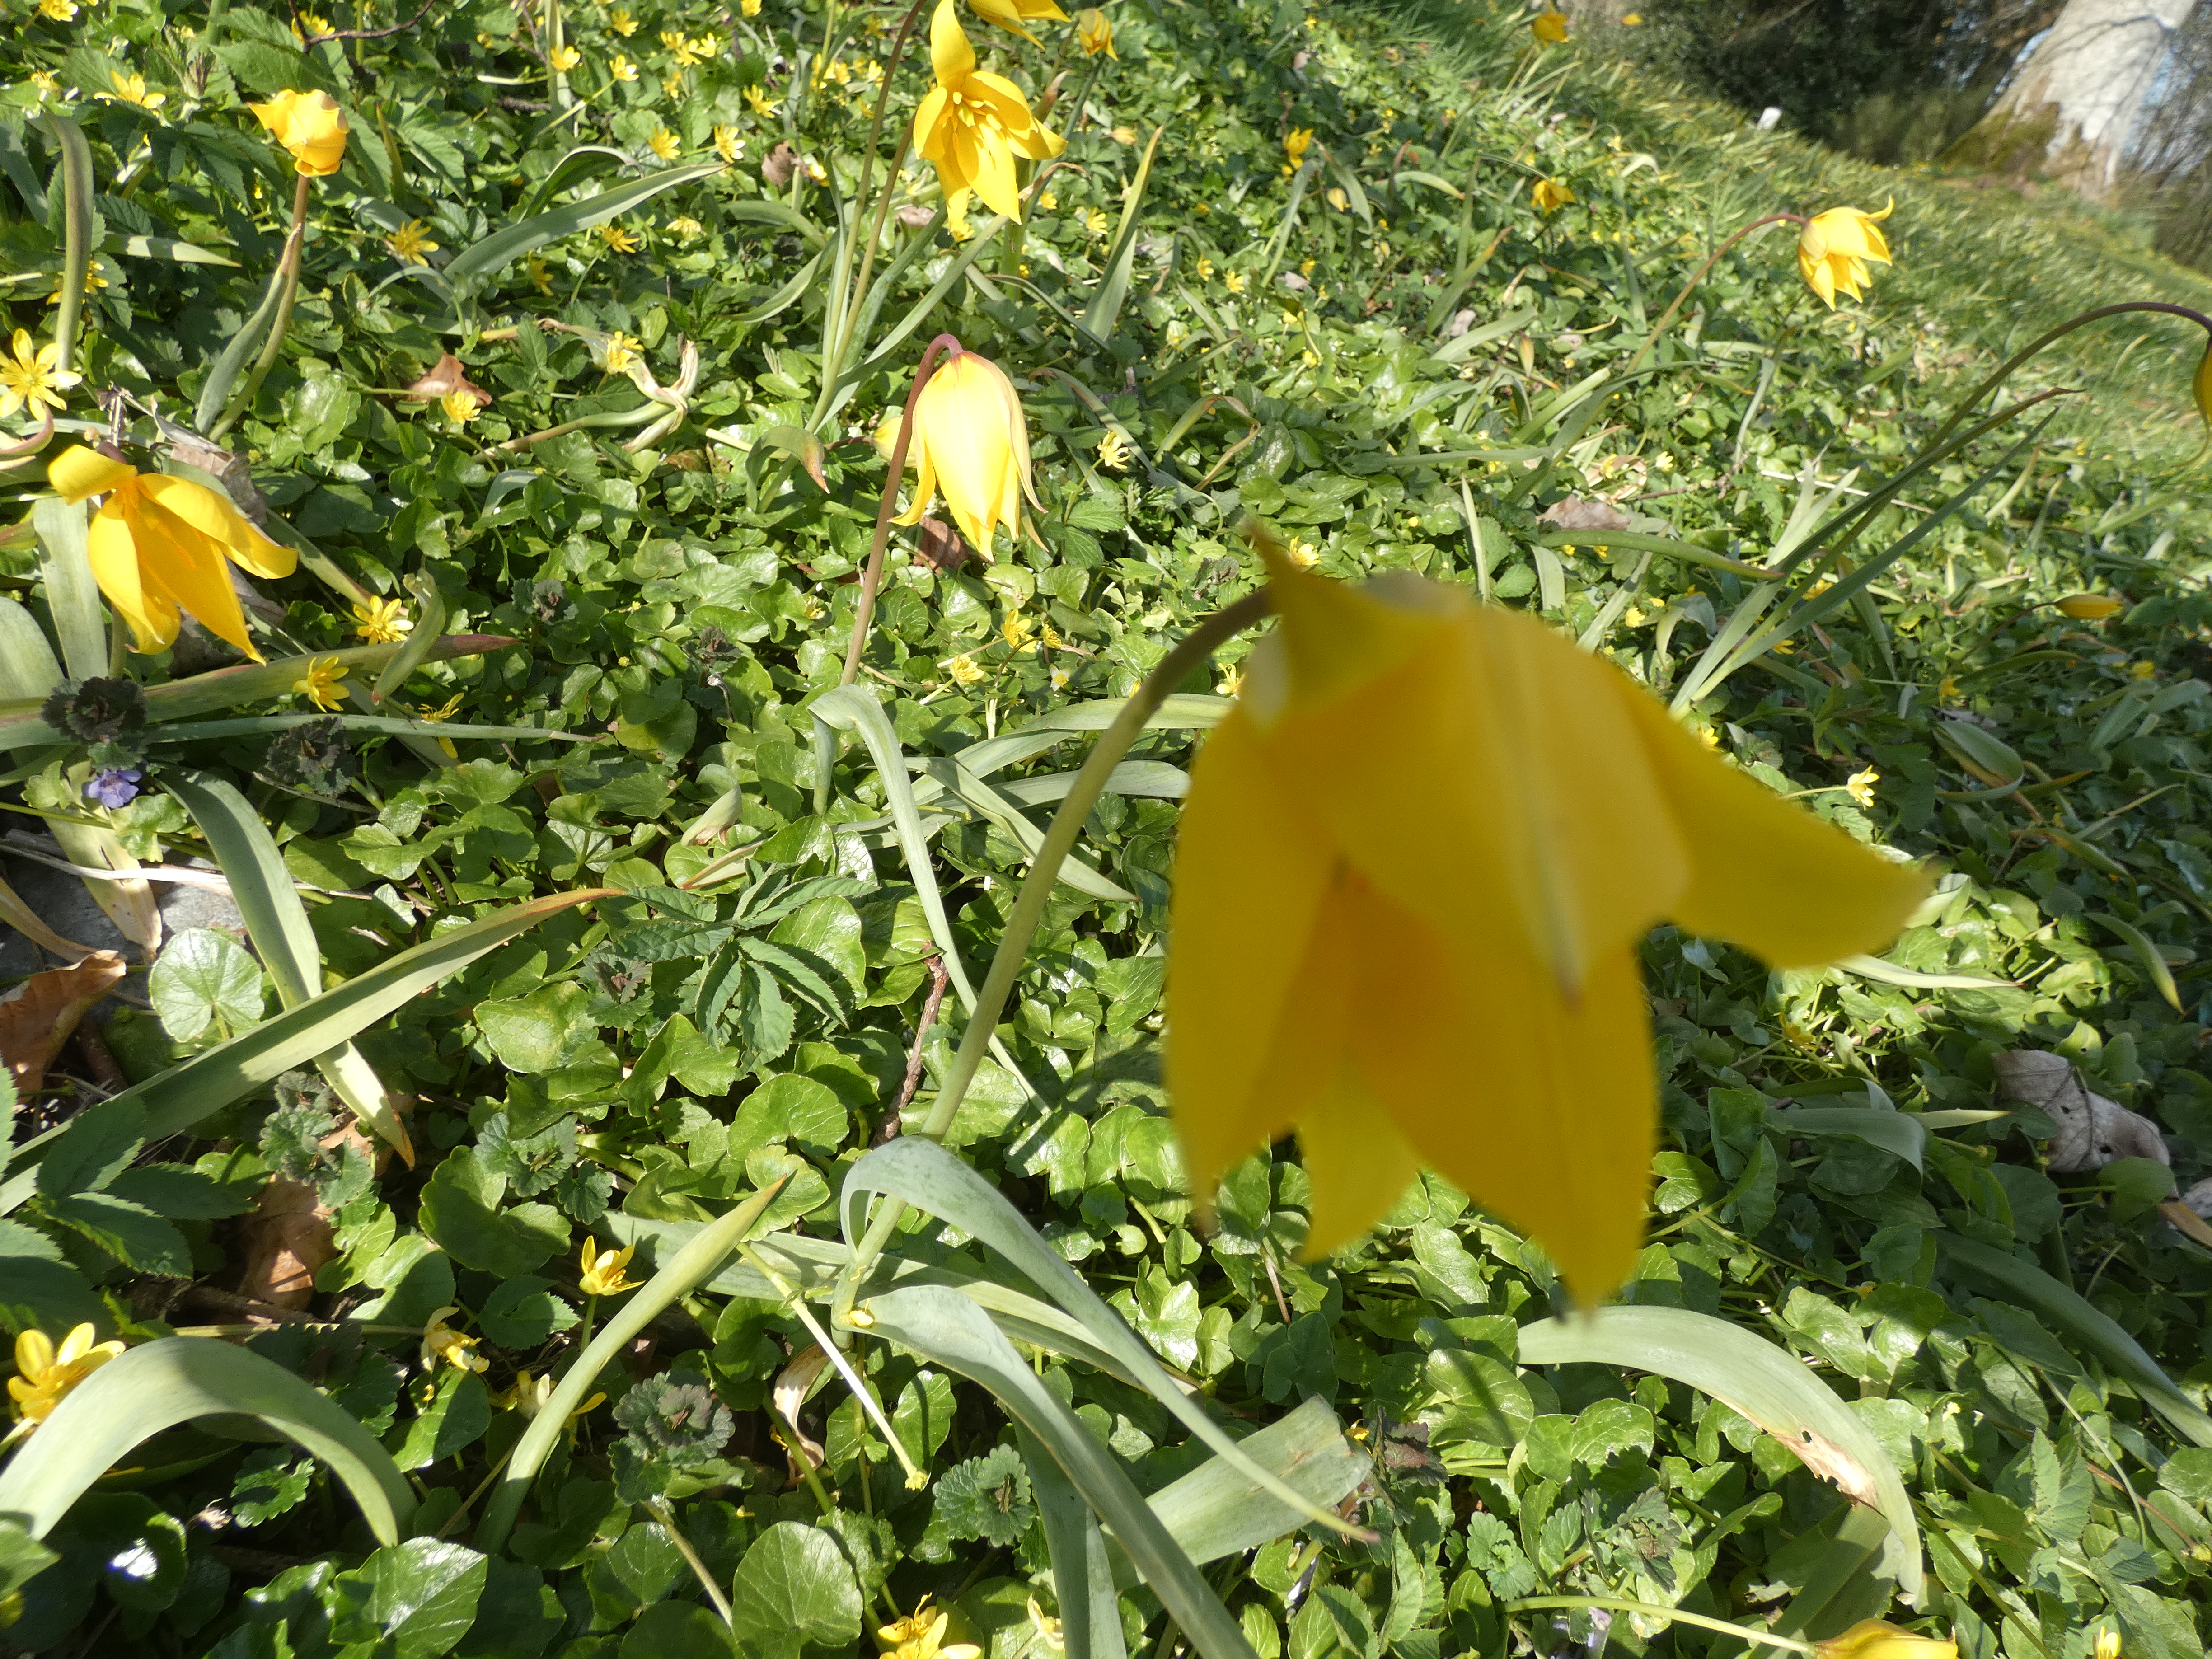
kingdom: Plantae
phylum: Tracheophyta
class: Liliopsida
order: Liliales
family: Liliaceae
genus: Tulipa
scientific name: Tulipa sylvestris
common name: Vild tulipan
